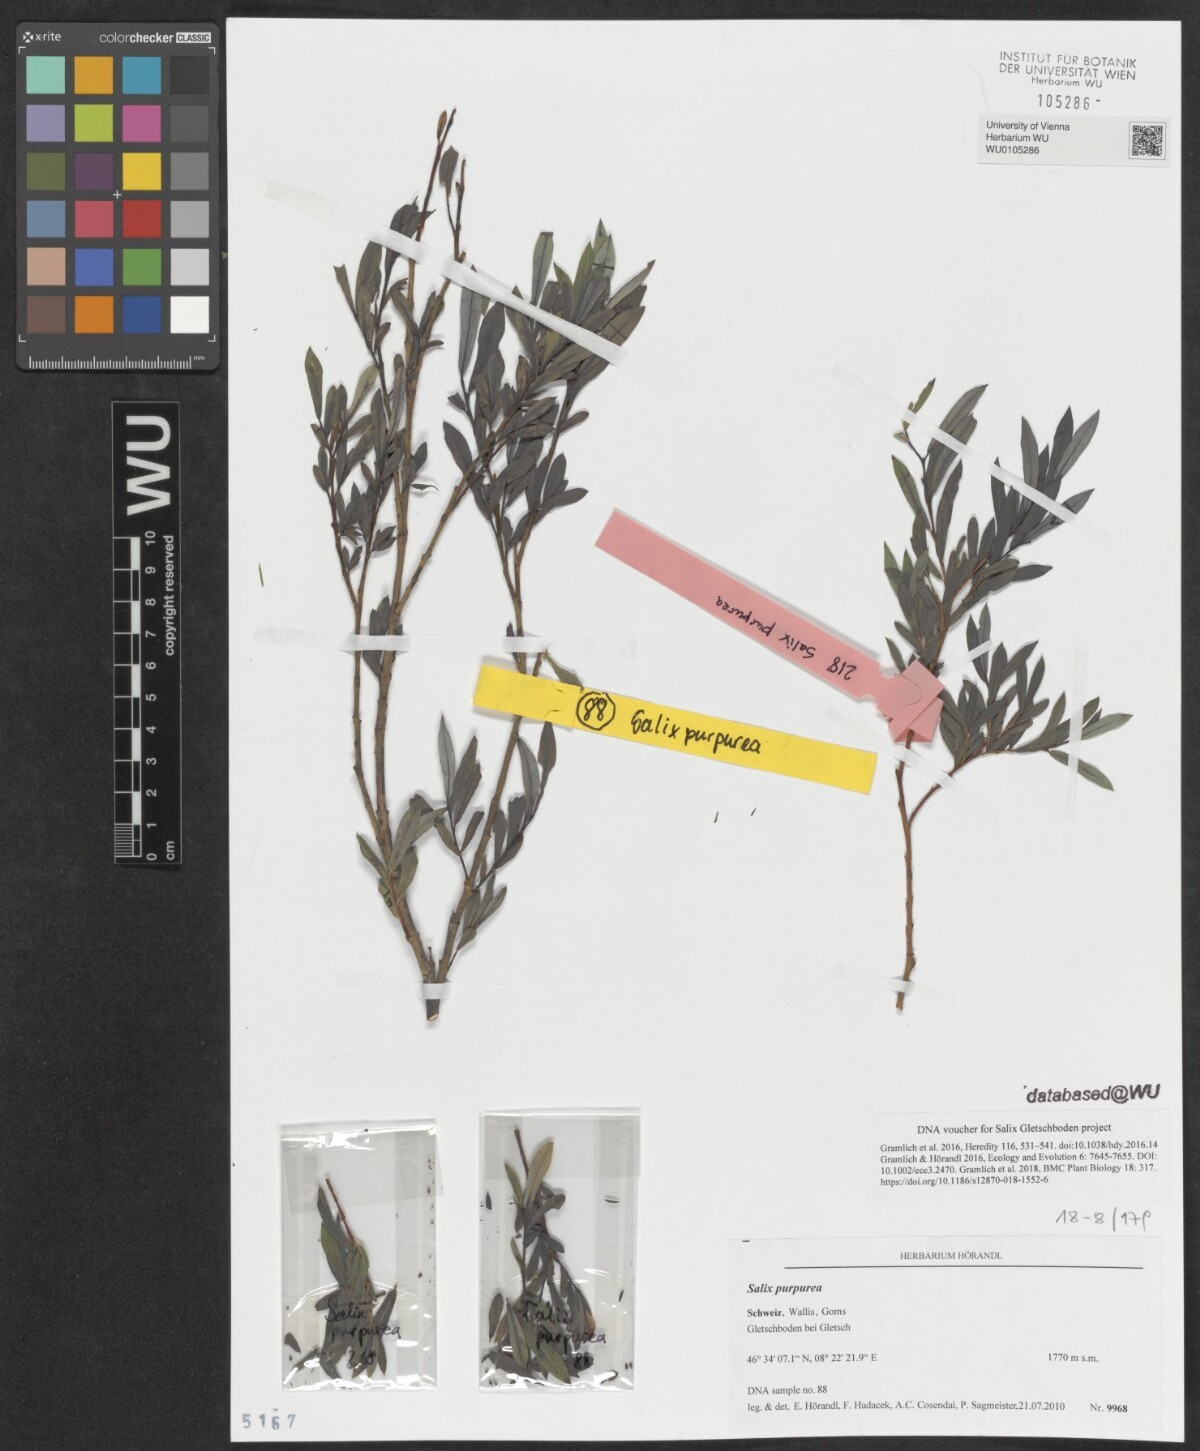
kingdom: Plantae
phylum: Tracheophyta
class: Magnoliopsida
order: Malpighiales
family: Salicaceae
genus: Salix
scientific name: Salix purpurea
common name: Purple willow
